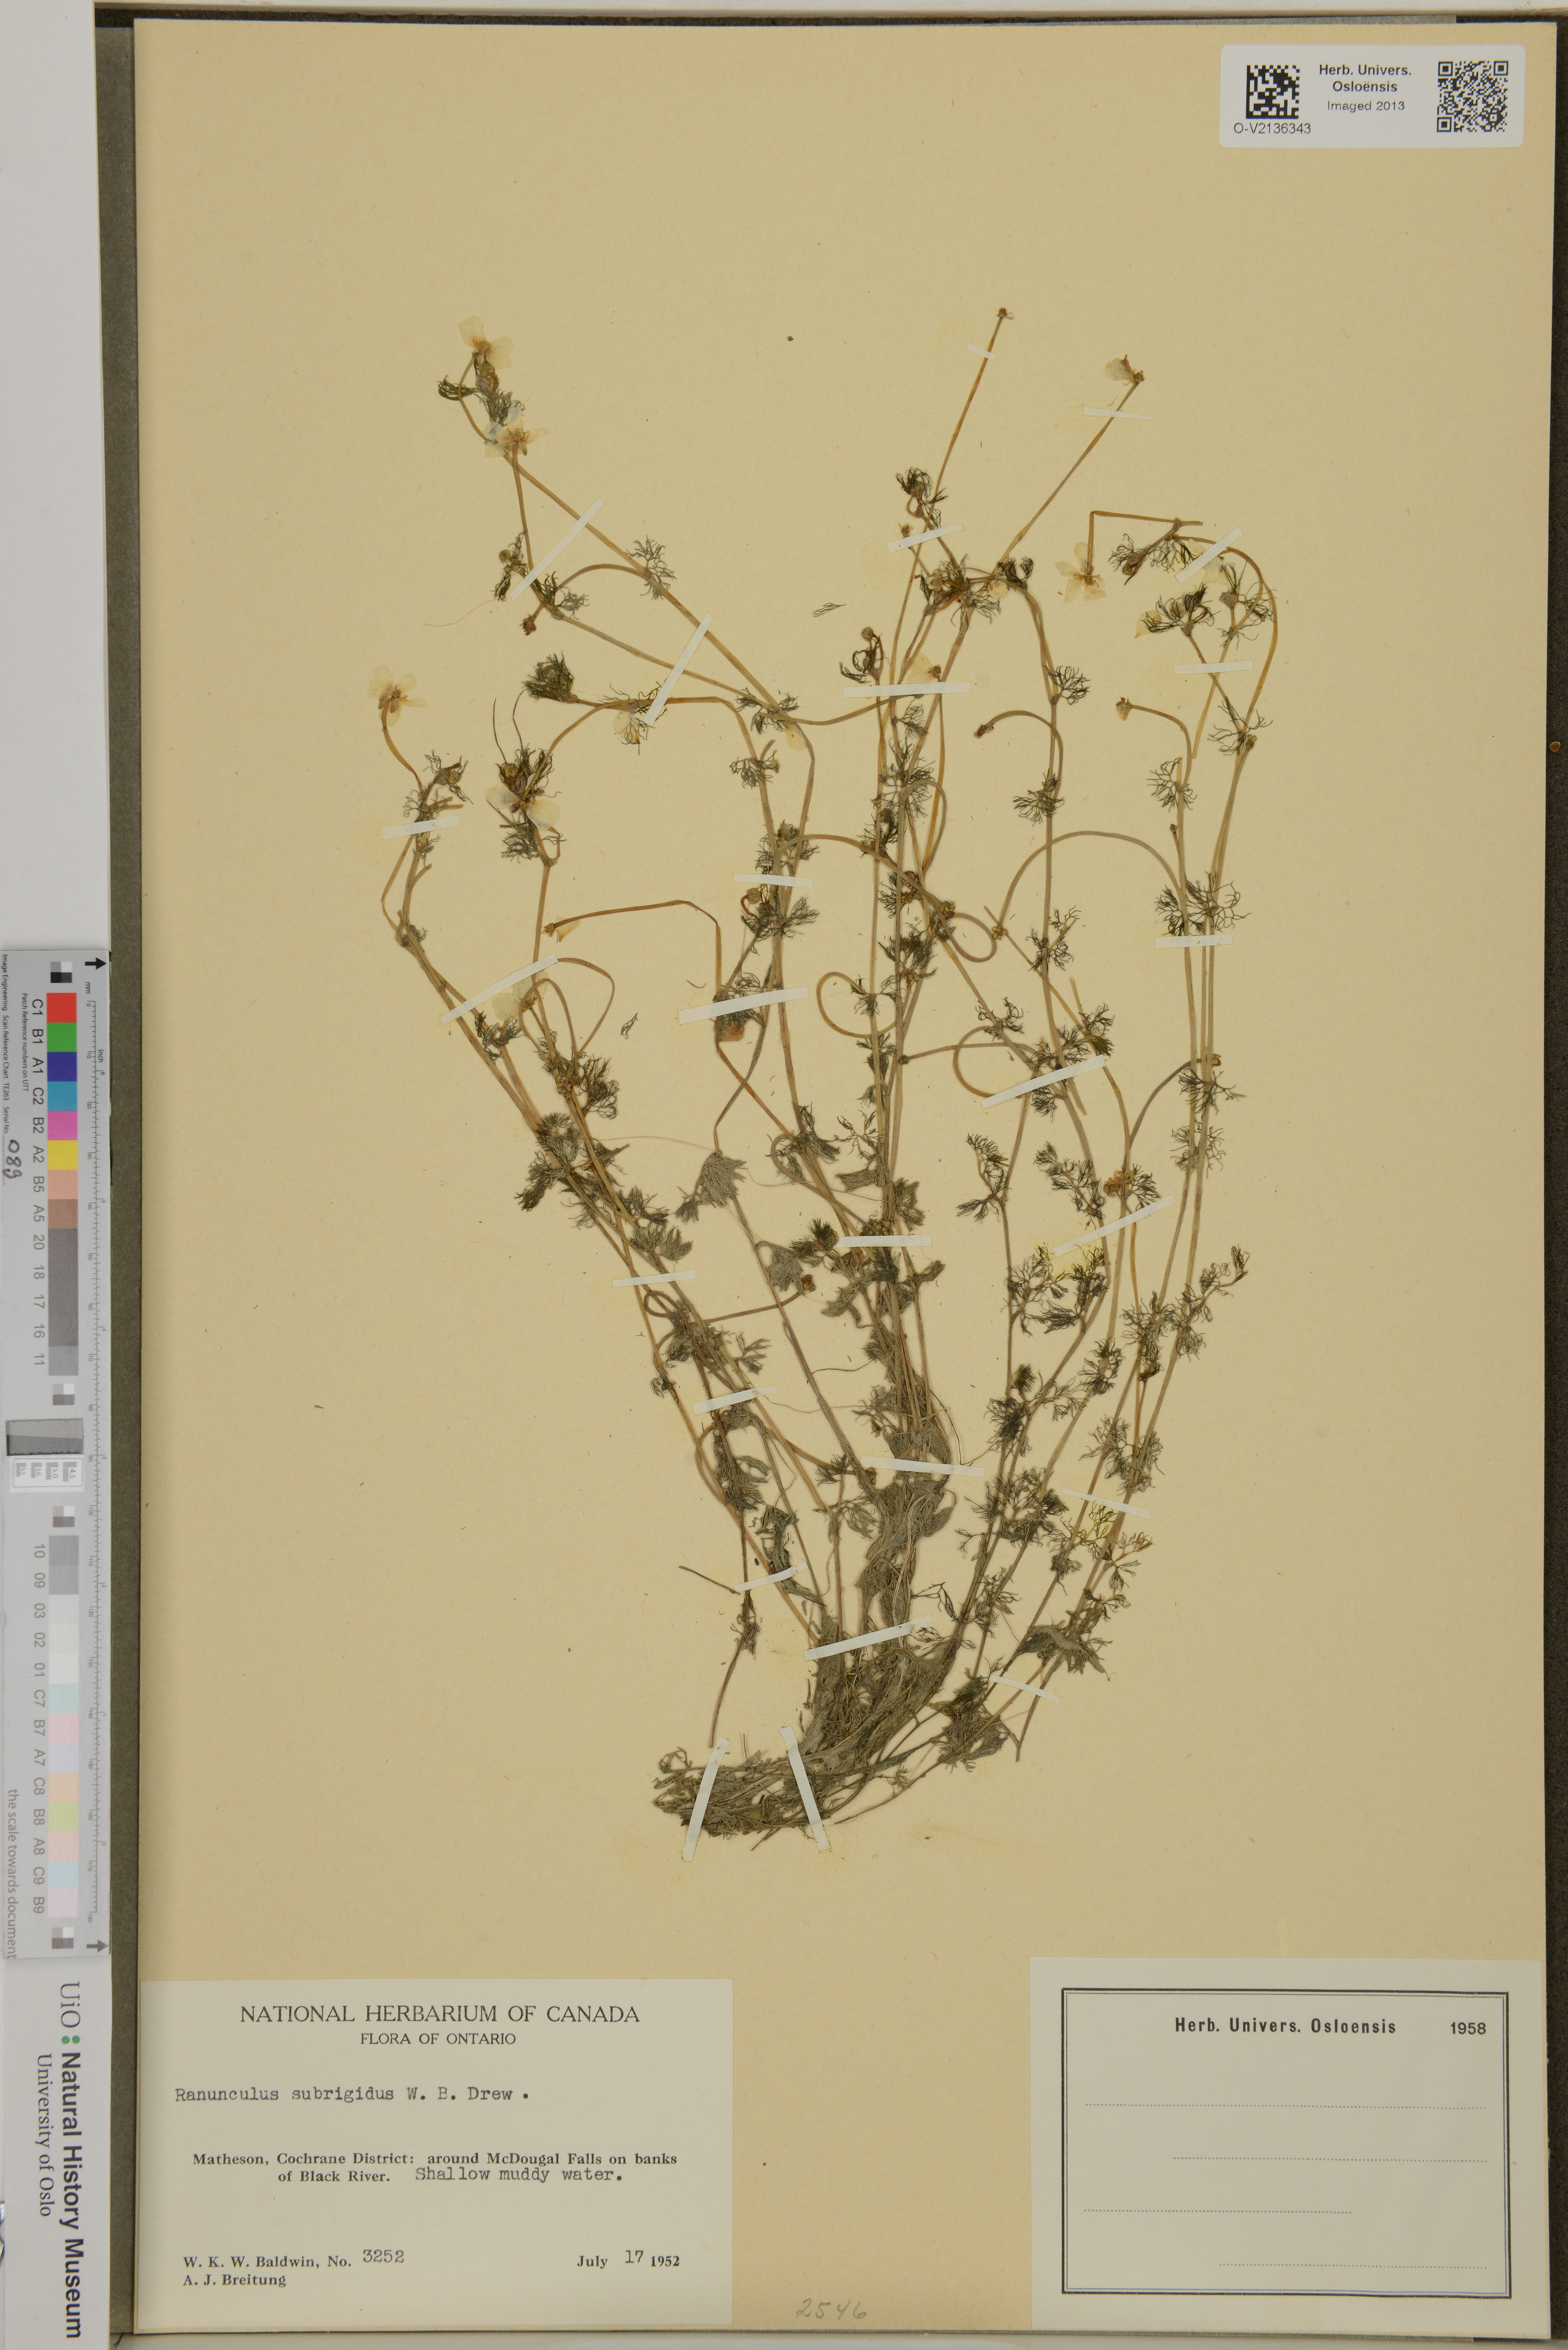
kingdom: Plantae
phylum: Tracheophyta
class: Magnoliopsida
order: Ranunculales
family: Ranunculaceae
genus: Ranunculus
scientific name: Ranunculus longirostris
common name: Curly white water-crowfoot
